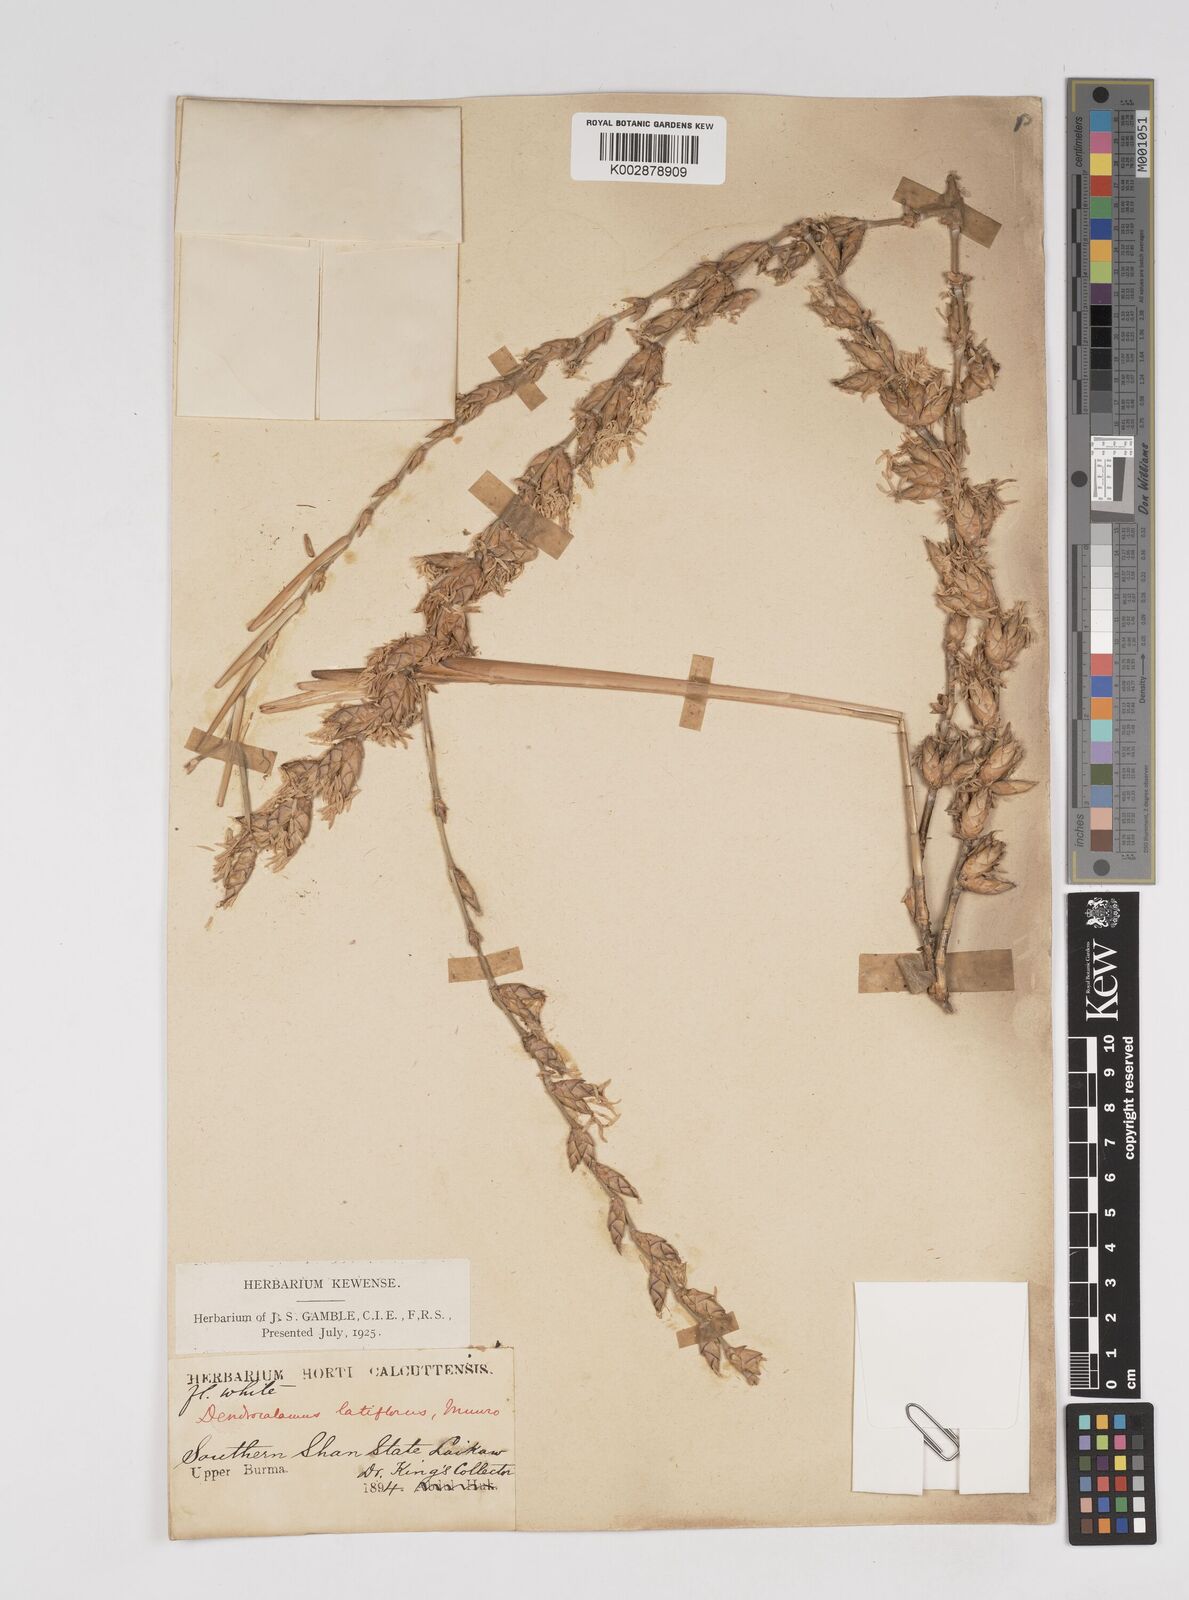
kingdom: Plantae
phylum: Tracheophyta
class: Liliopsida
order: Poales
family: Poaceae
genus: Dendrocalamus
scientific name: Dendrocalamus latiflorus
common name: Giant bamboo
